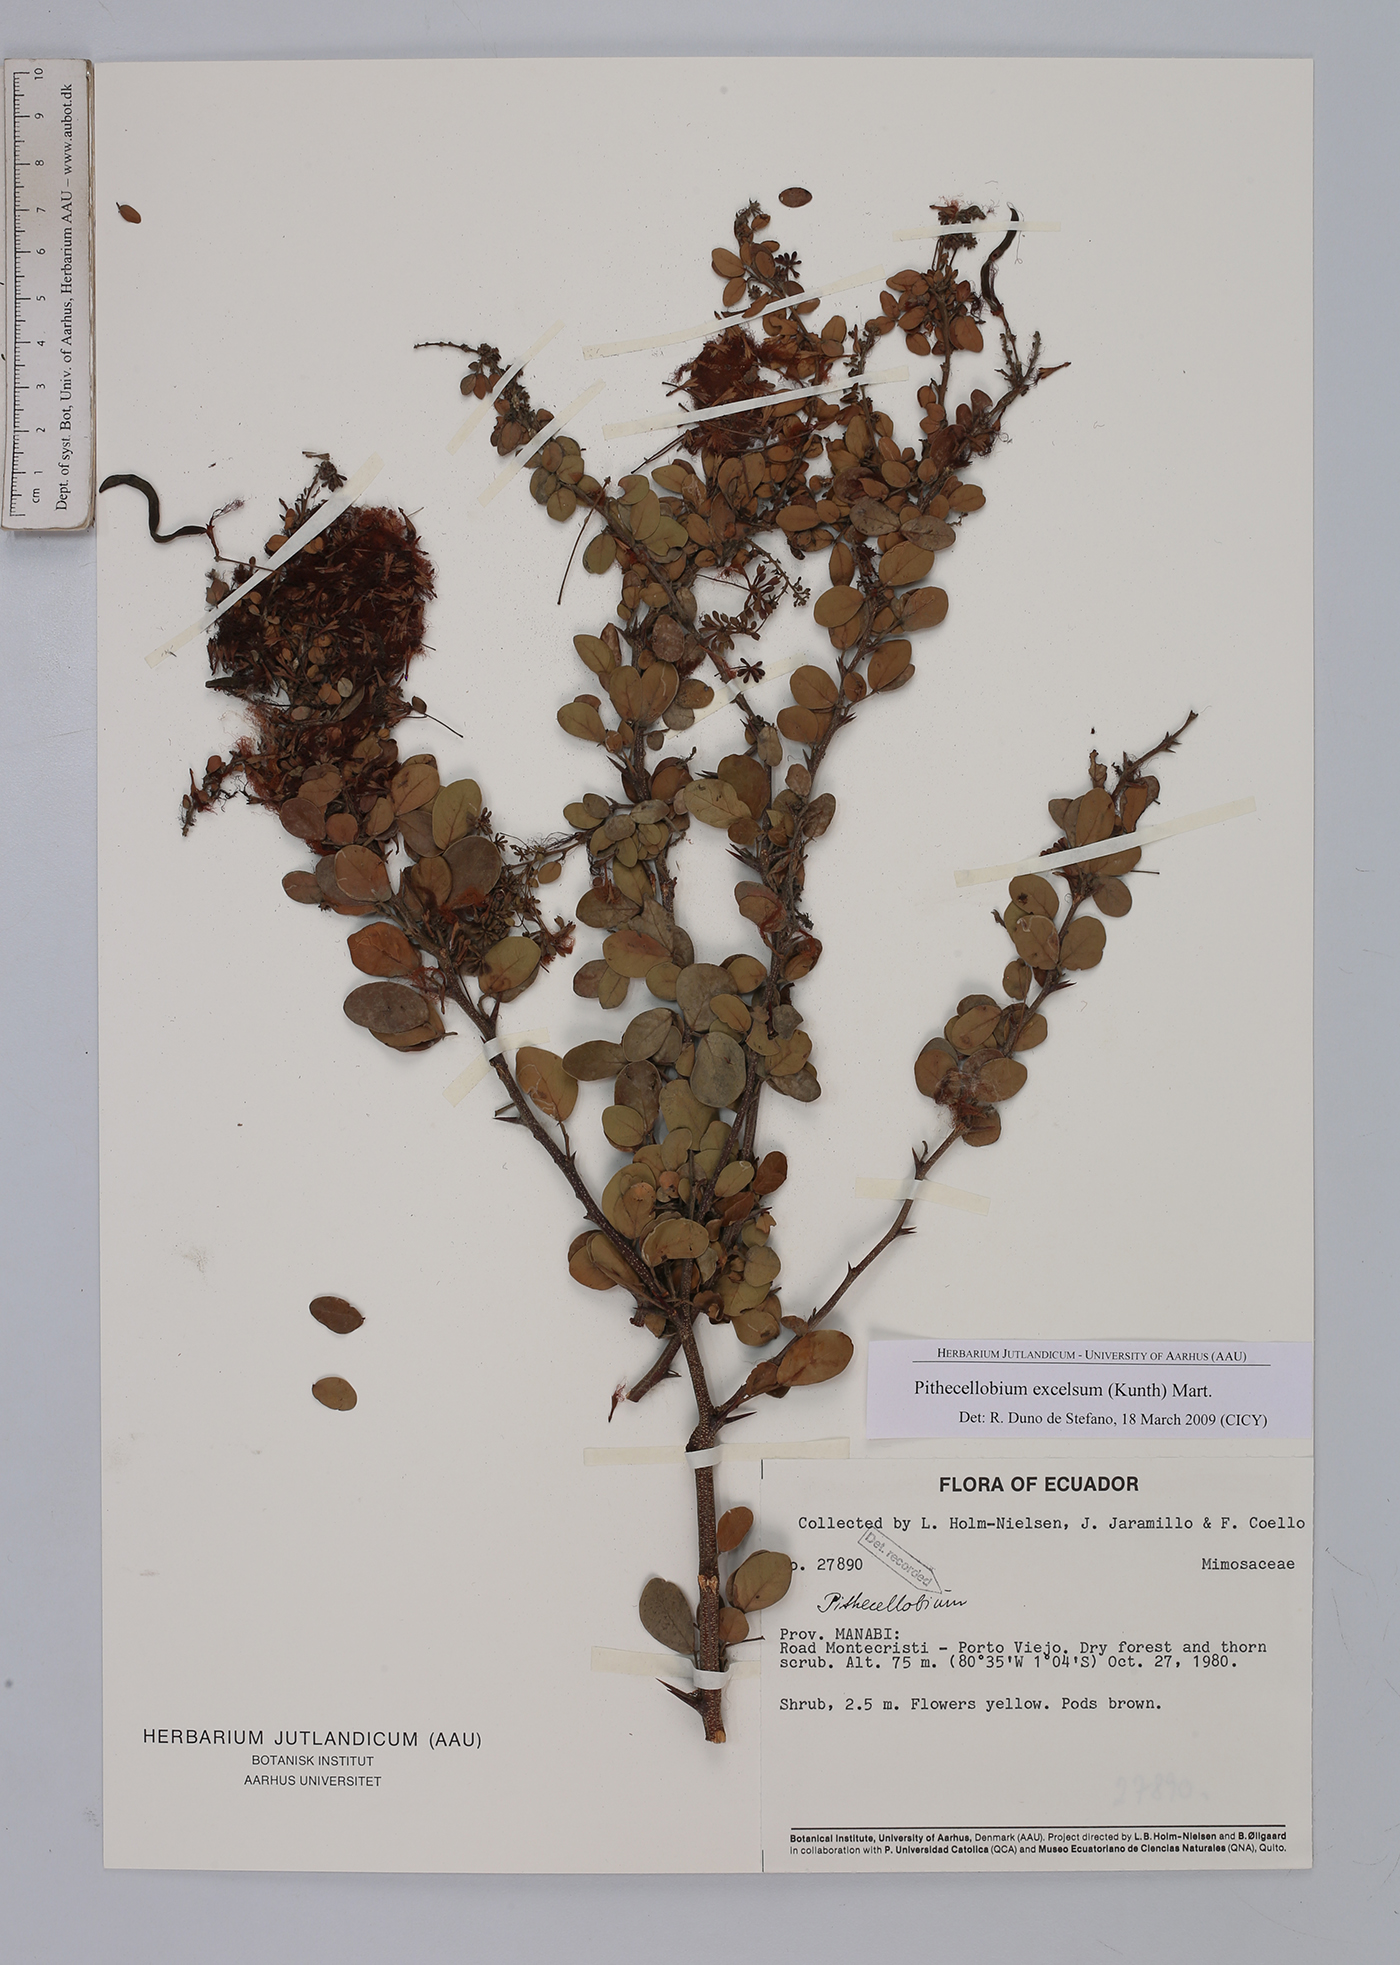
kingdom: Plantae
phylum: Tracheophyta
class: Magnoliopsida
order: Fabales
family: Fabaceae
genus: Pithecellobium
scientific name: Pithecellobium excelsum
